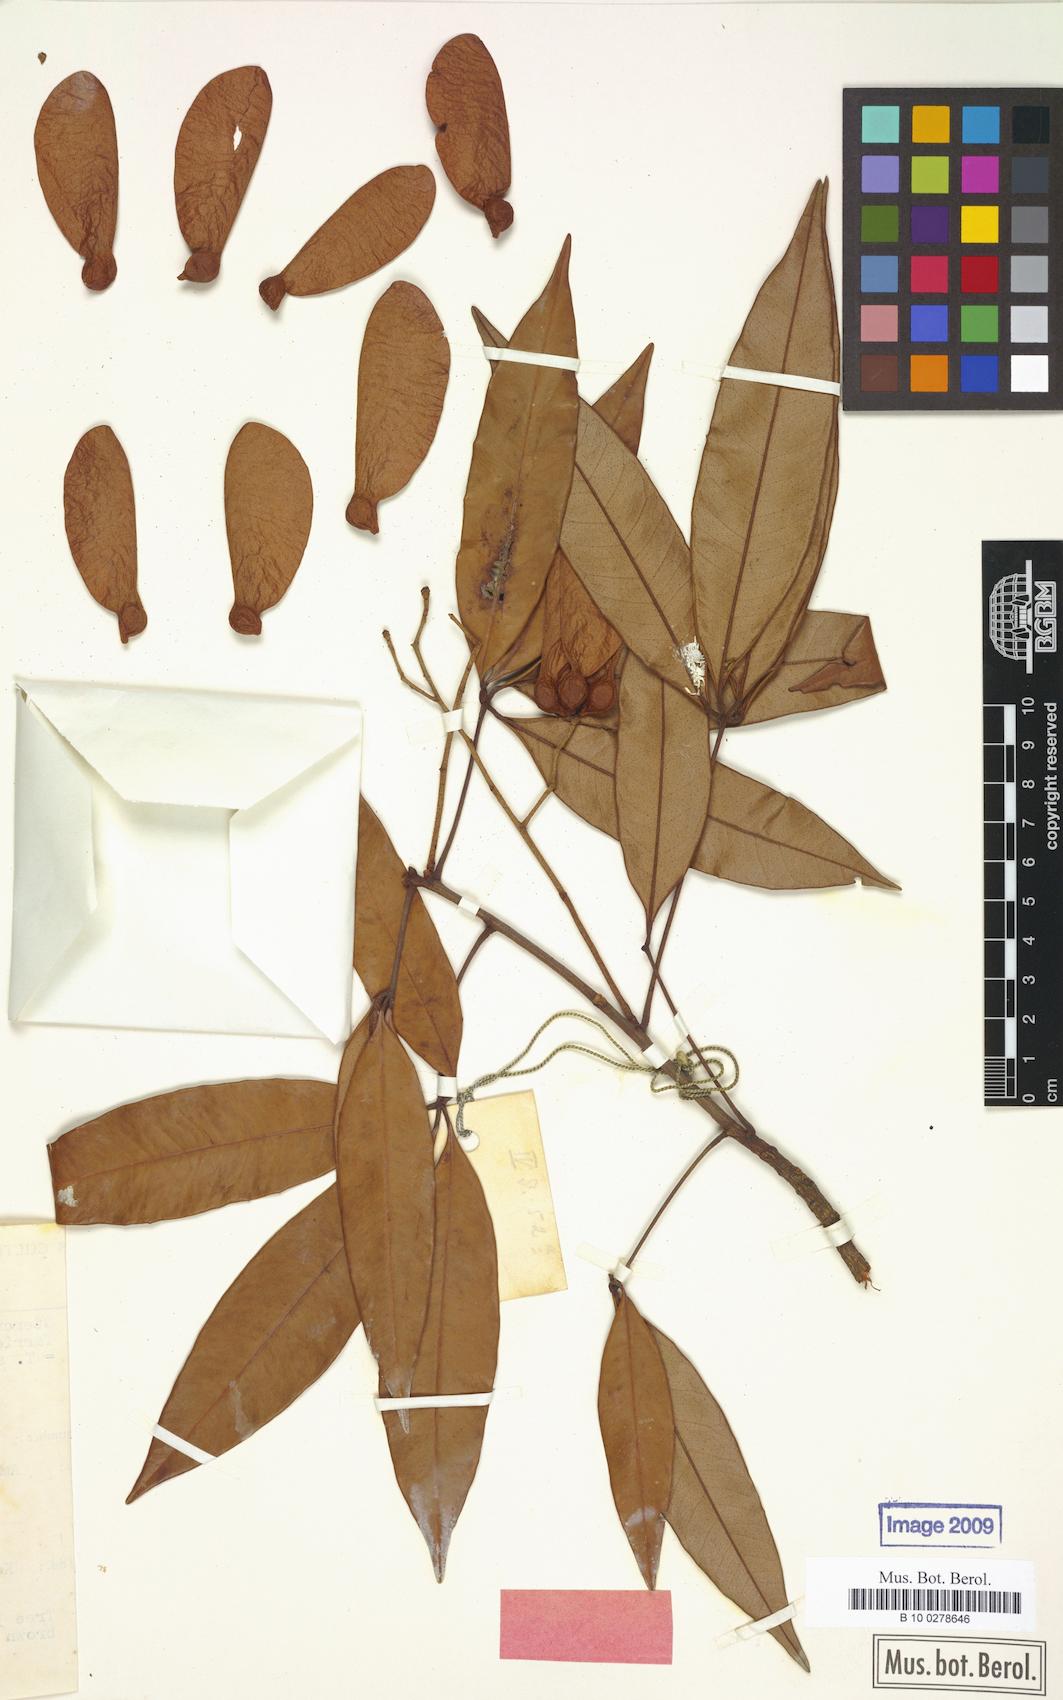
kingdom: Plantae
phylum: Tracheophyta
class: Magnoliopsida
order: Malvales
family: Malvaceae
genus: Argyrodendron
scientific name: Argyrodendron trifoliolatum
